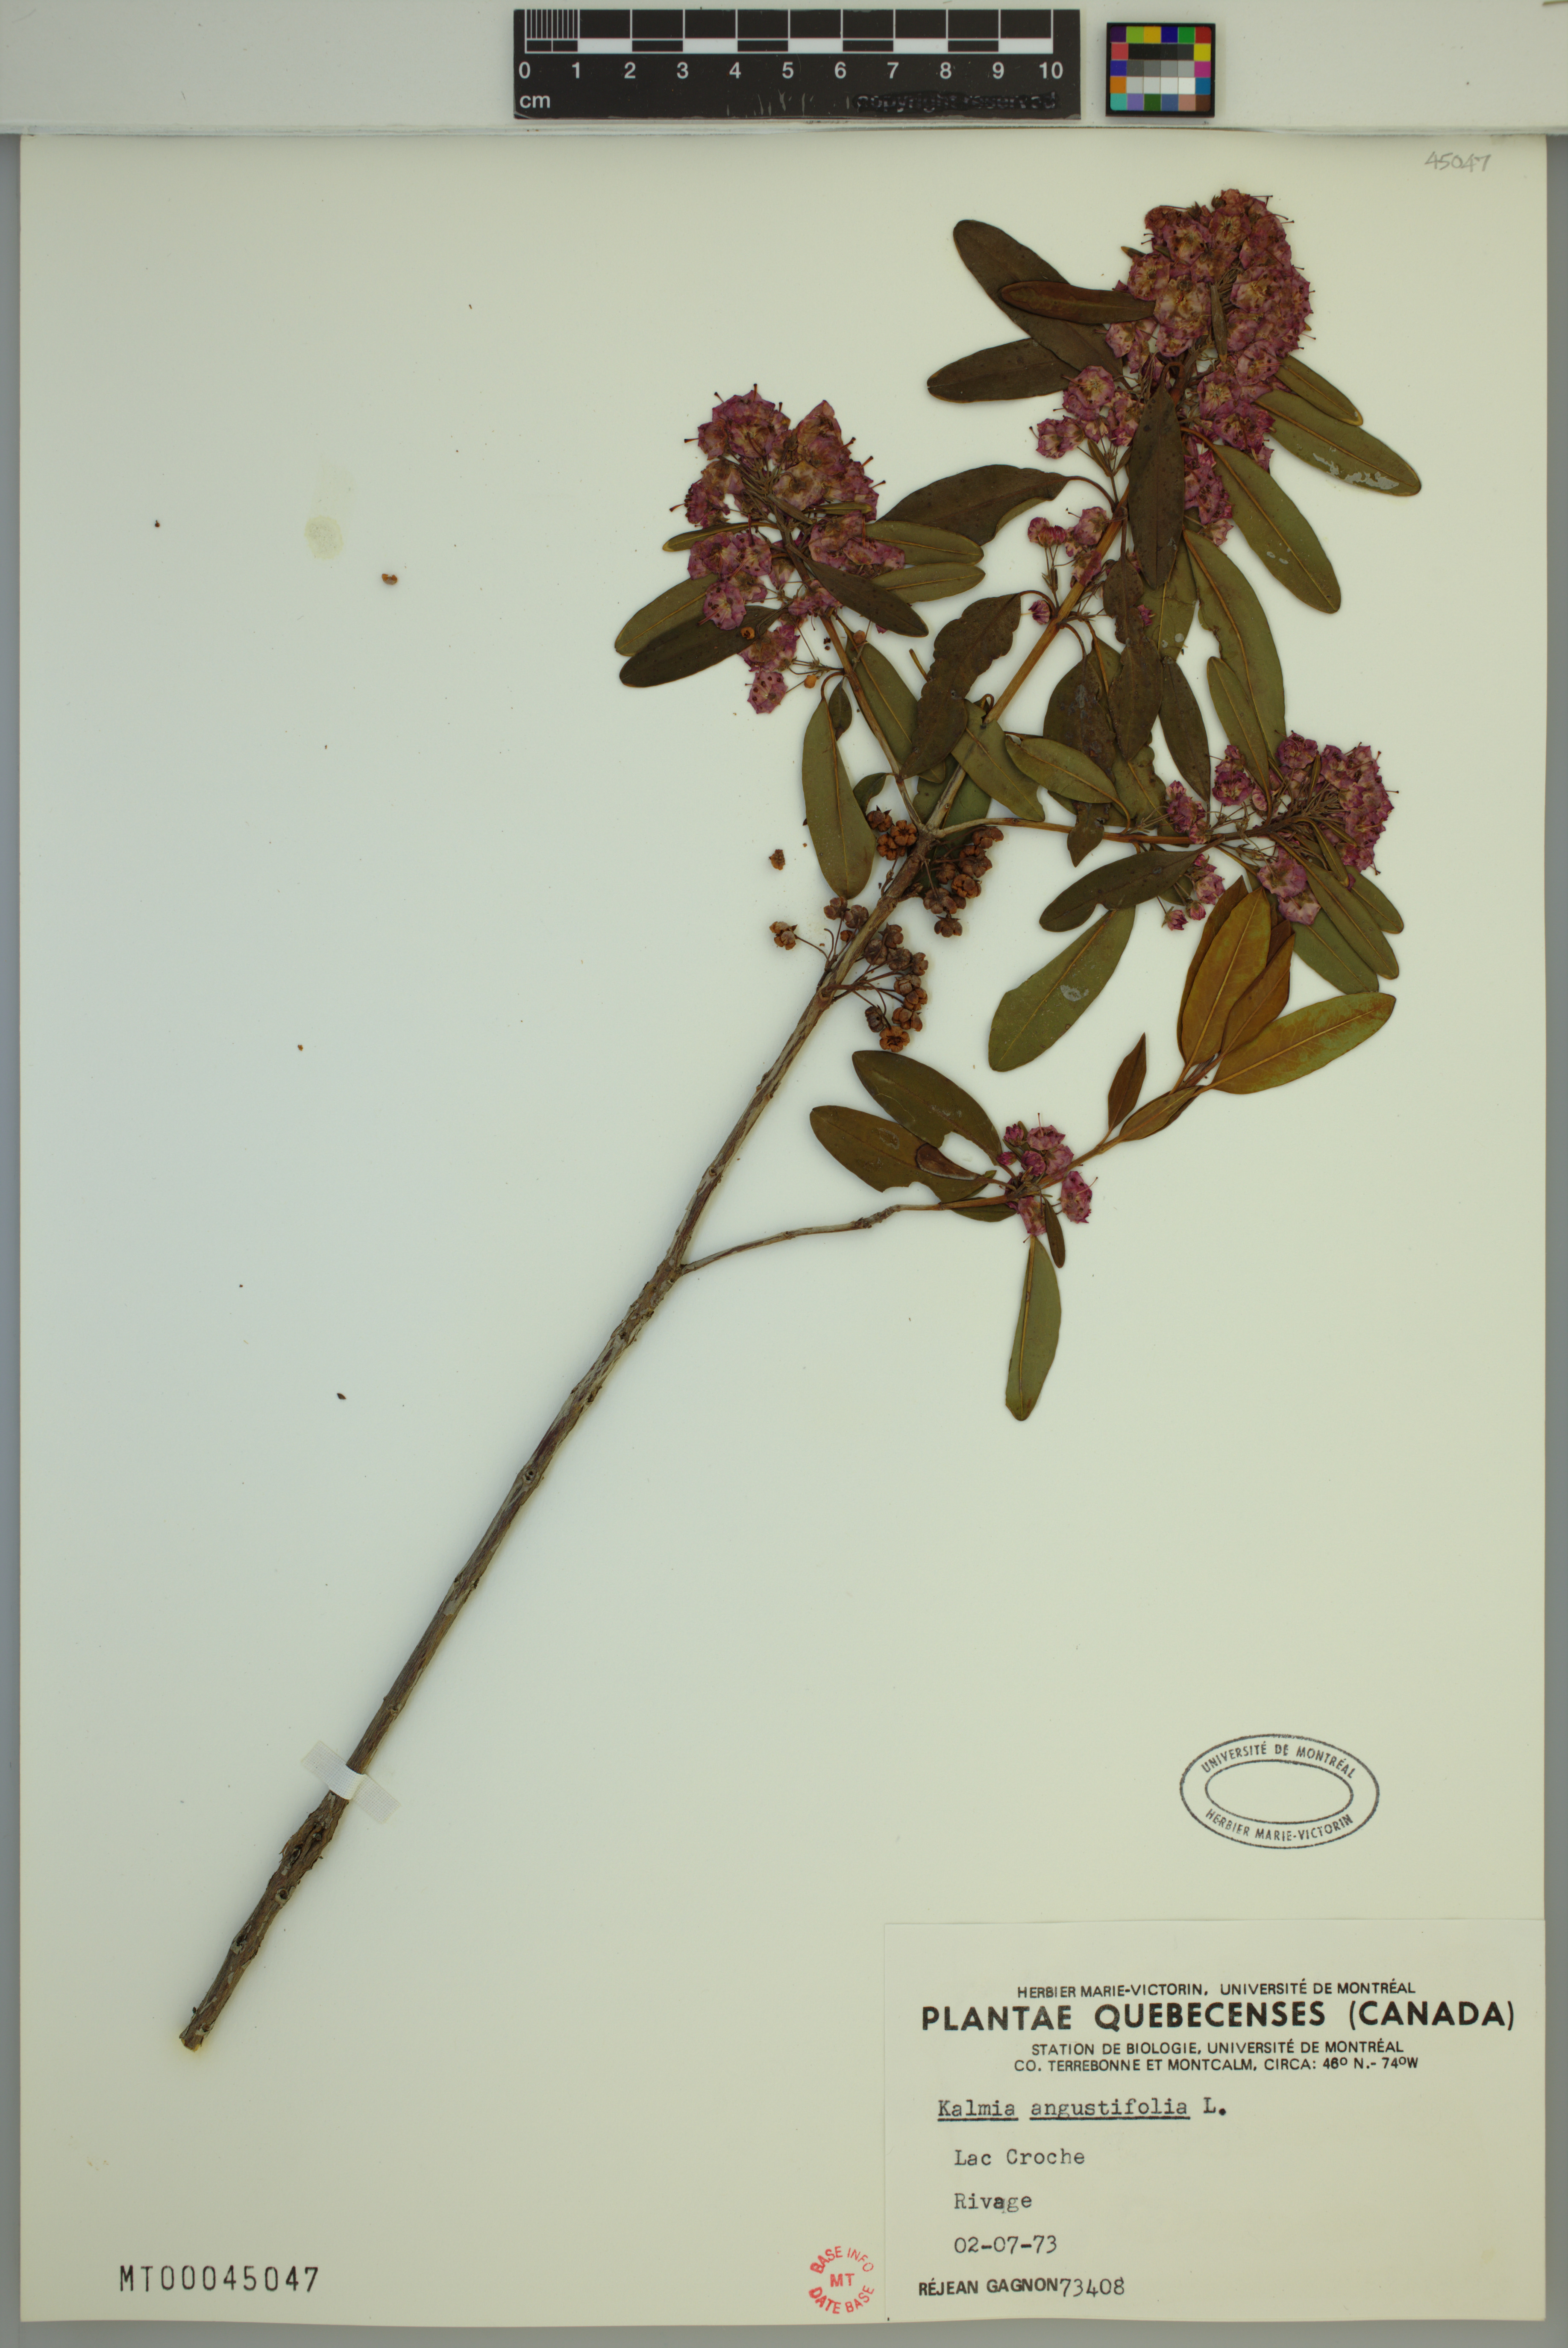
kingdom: Plantae
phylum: Tracheophyta
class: Magnoliopsida
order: Ericales
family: Ericaceae
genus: Kalmia
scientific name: Kalmia angustifolia
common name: Sheep-laurel
